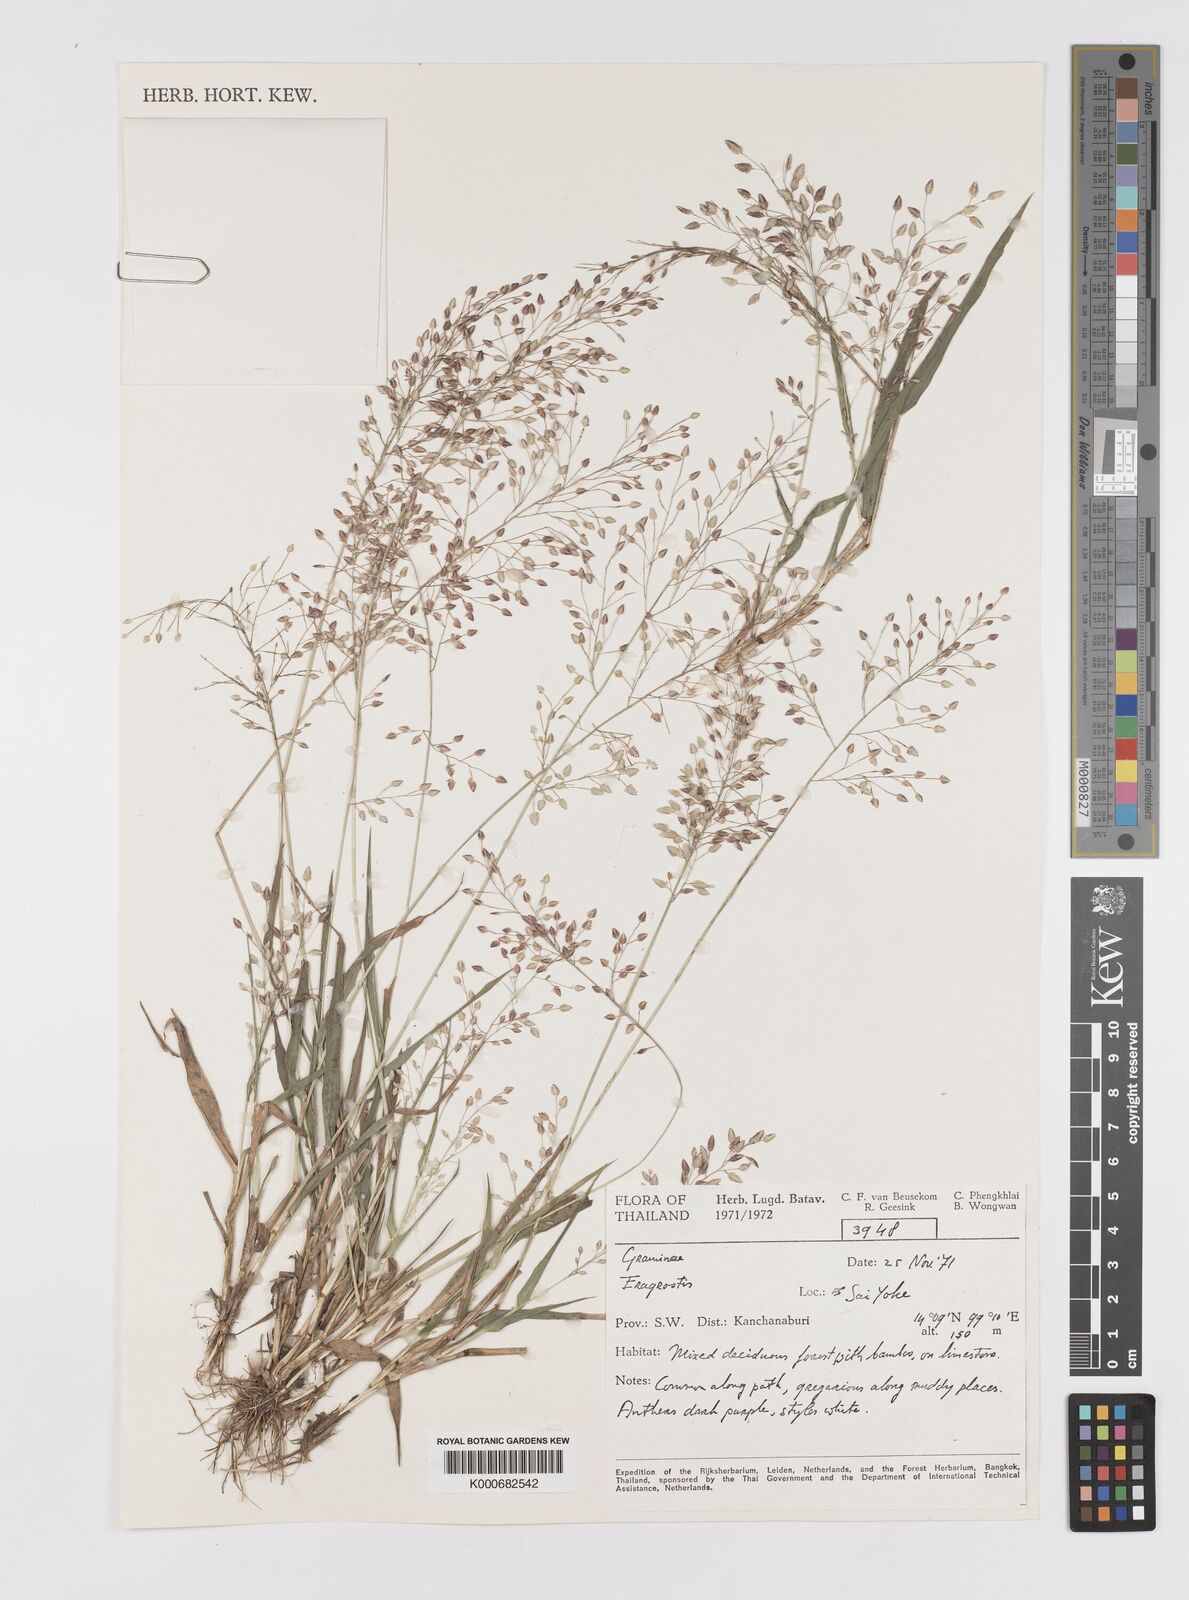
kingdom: Plantae
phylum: Tracheophyta
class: Liliopsida
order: Poales
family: Poaceae
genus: Eragrostis
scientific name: Eragrostis unioloides
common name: Chinese lovegrass
